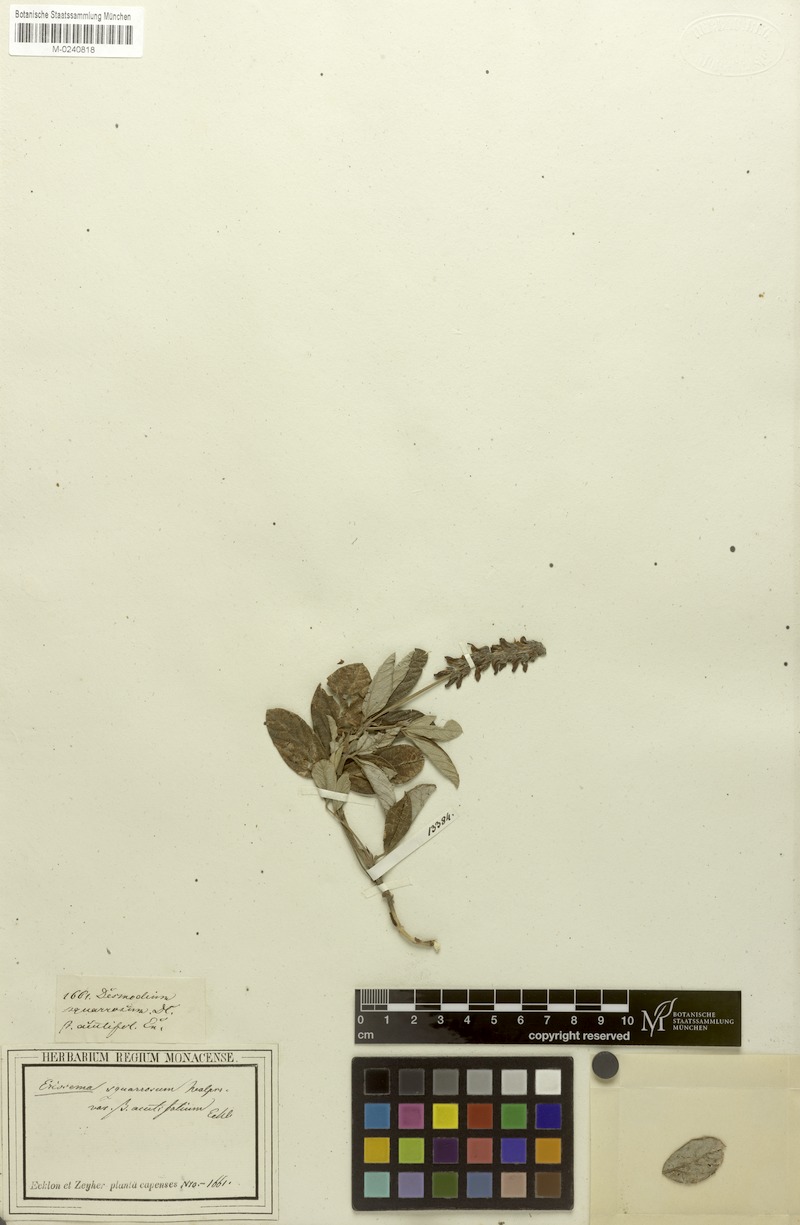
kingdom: Plantae
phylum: Tracheophyta
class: Magnoliopsida
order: Fabales
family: Fabaceae
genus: Eriosema
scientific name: Eriosema squarrosum
